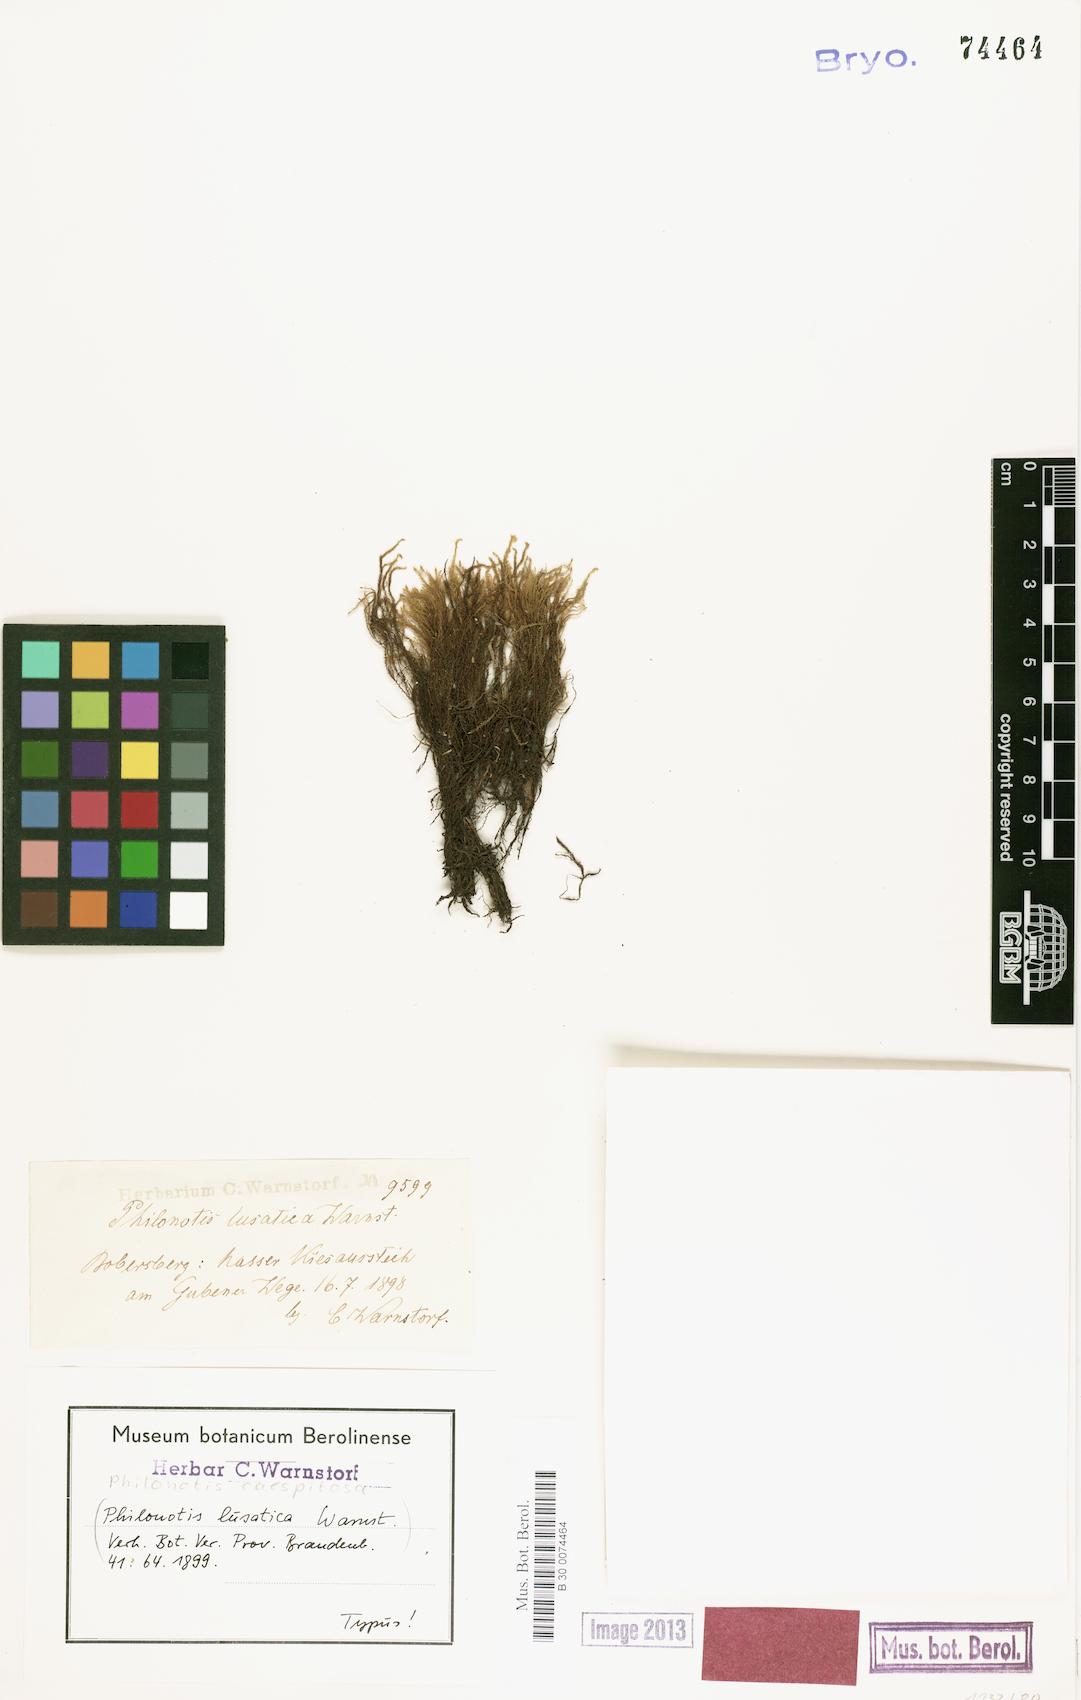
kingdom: Plantae
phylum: Bryophyta
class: Bryopsida
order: Bartramiales
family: Bartramiaceae
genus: Philonotis
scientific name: Philonotis caespitosa
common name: Tufted apple-moss
